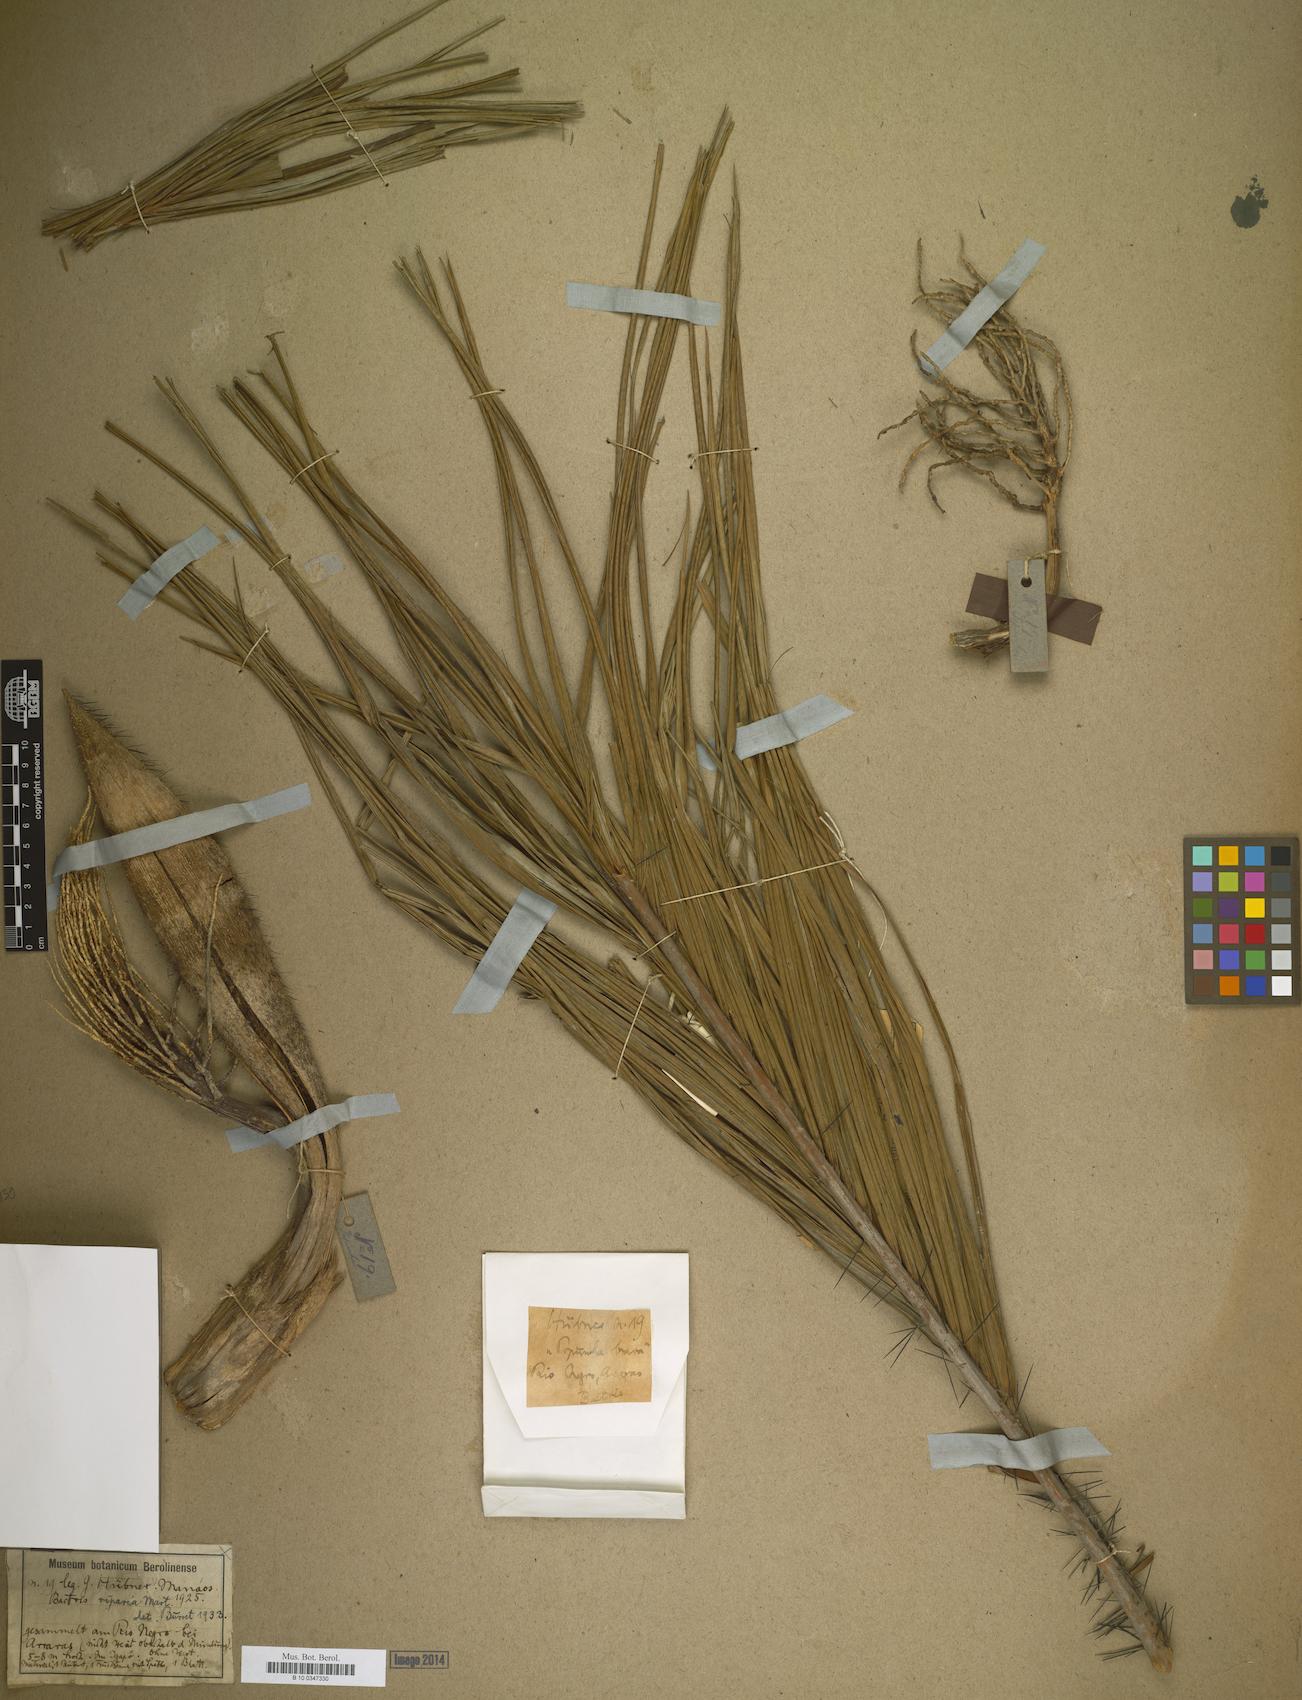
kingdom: Plantae
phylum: Tracheophyta
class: Liliopsida
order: Arecales
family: Arecaceae
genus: Bactris
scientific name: Bactris riparia
